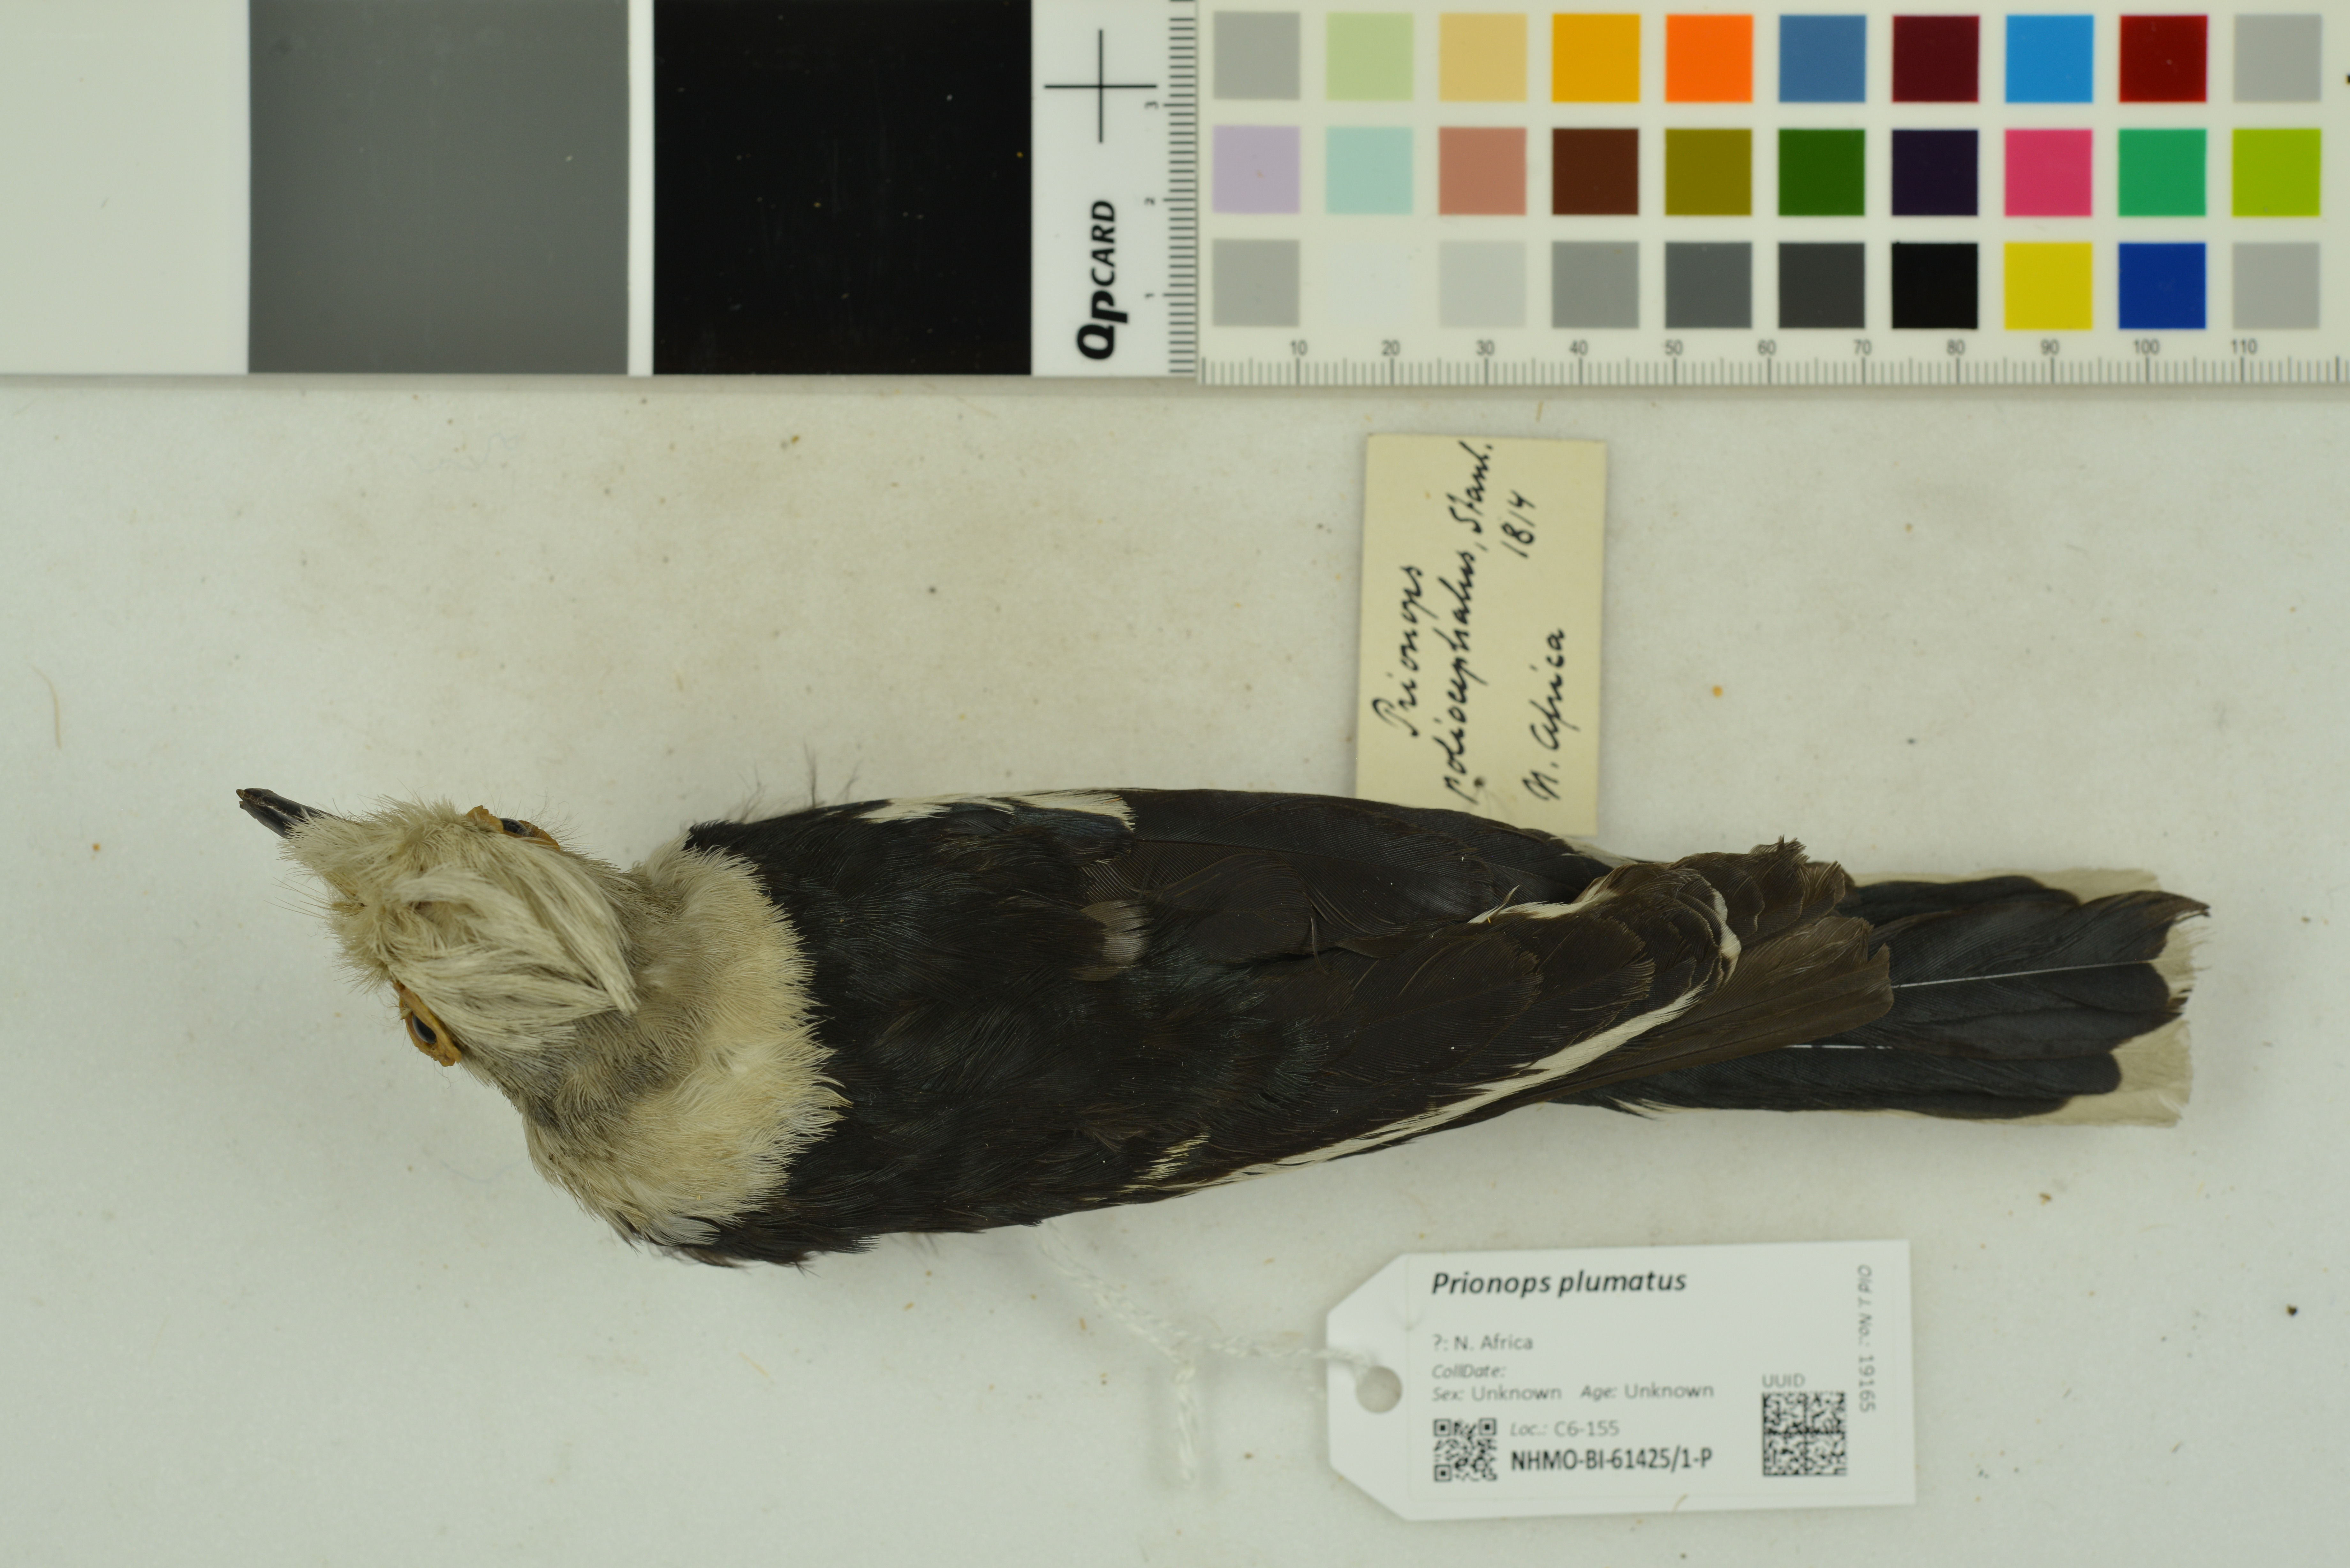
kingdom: Animalia
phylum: Chordata
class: Aves
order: Passeriformes
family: Prionopidae
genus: Prionops
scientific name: Prionops plumatus
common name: White-crested helmetshrike
